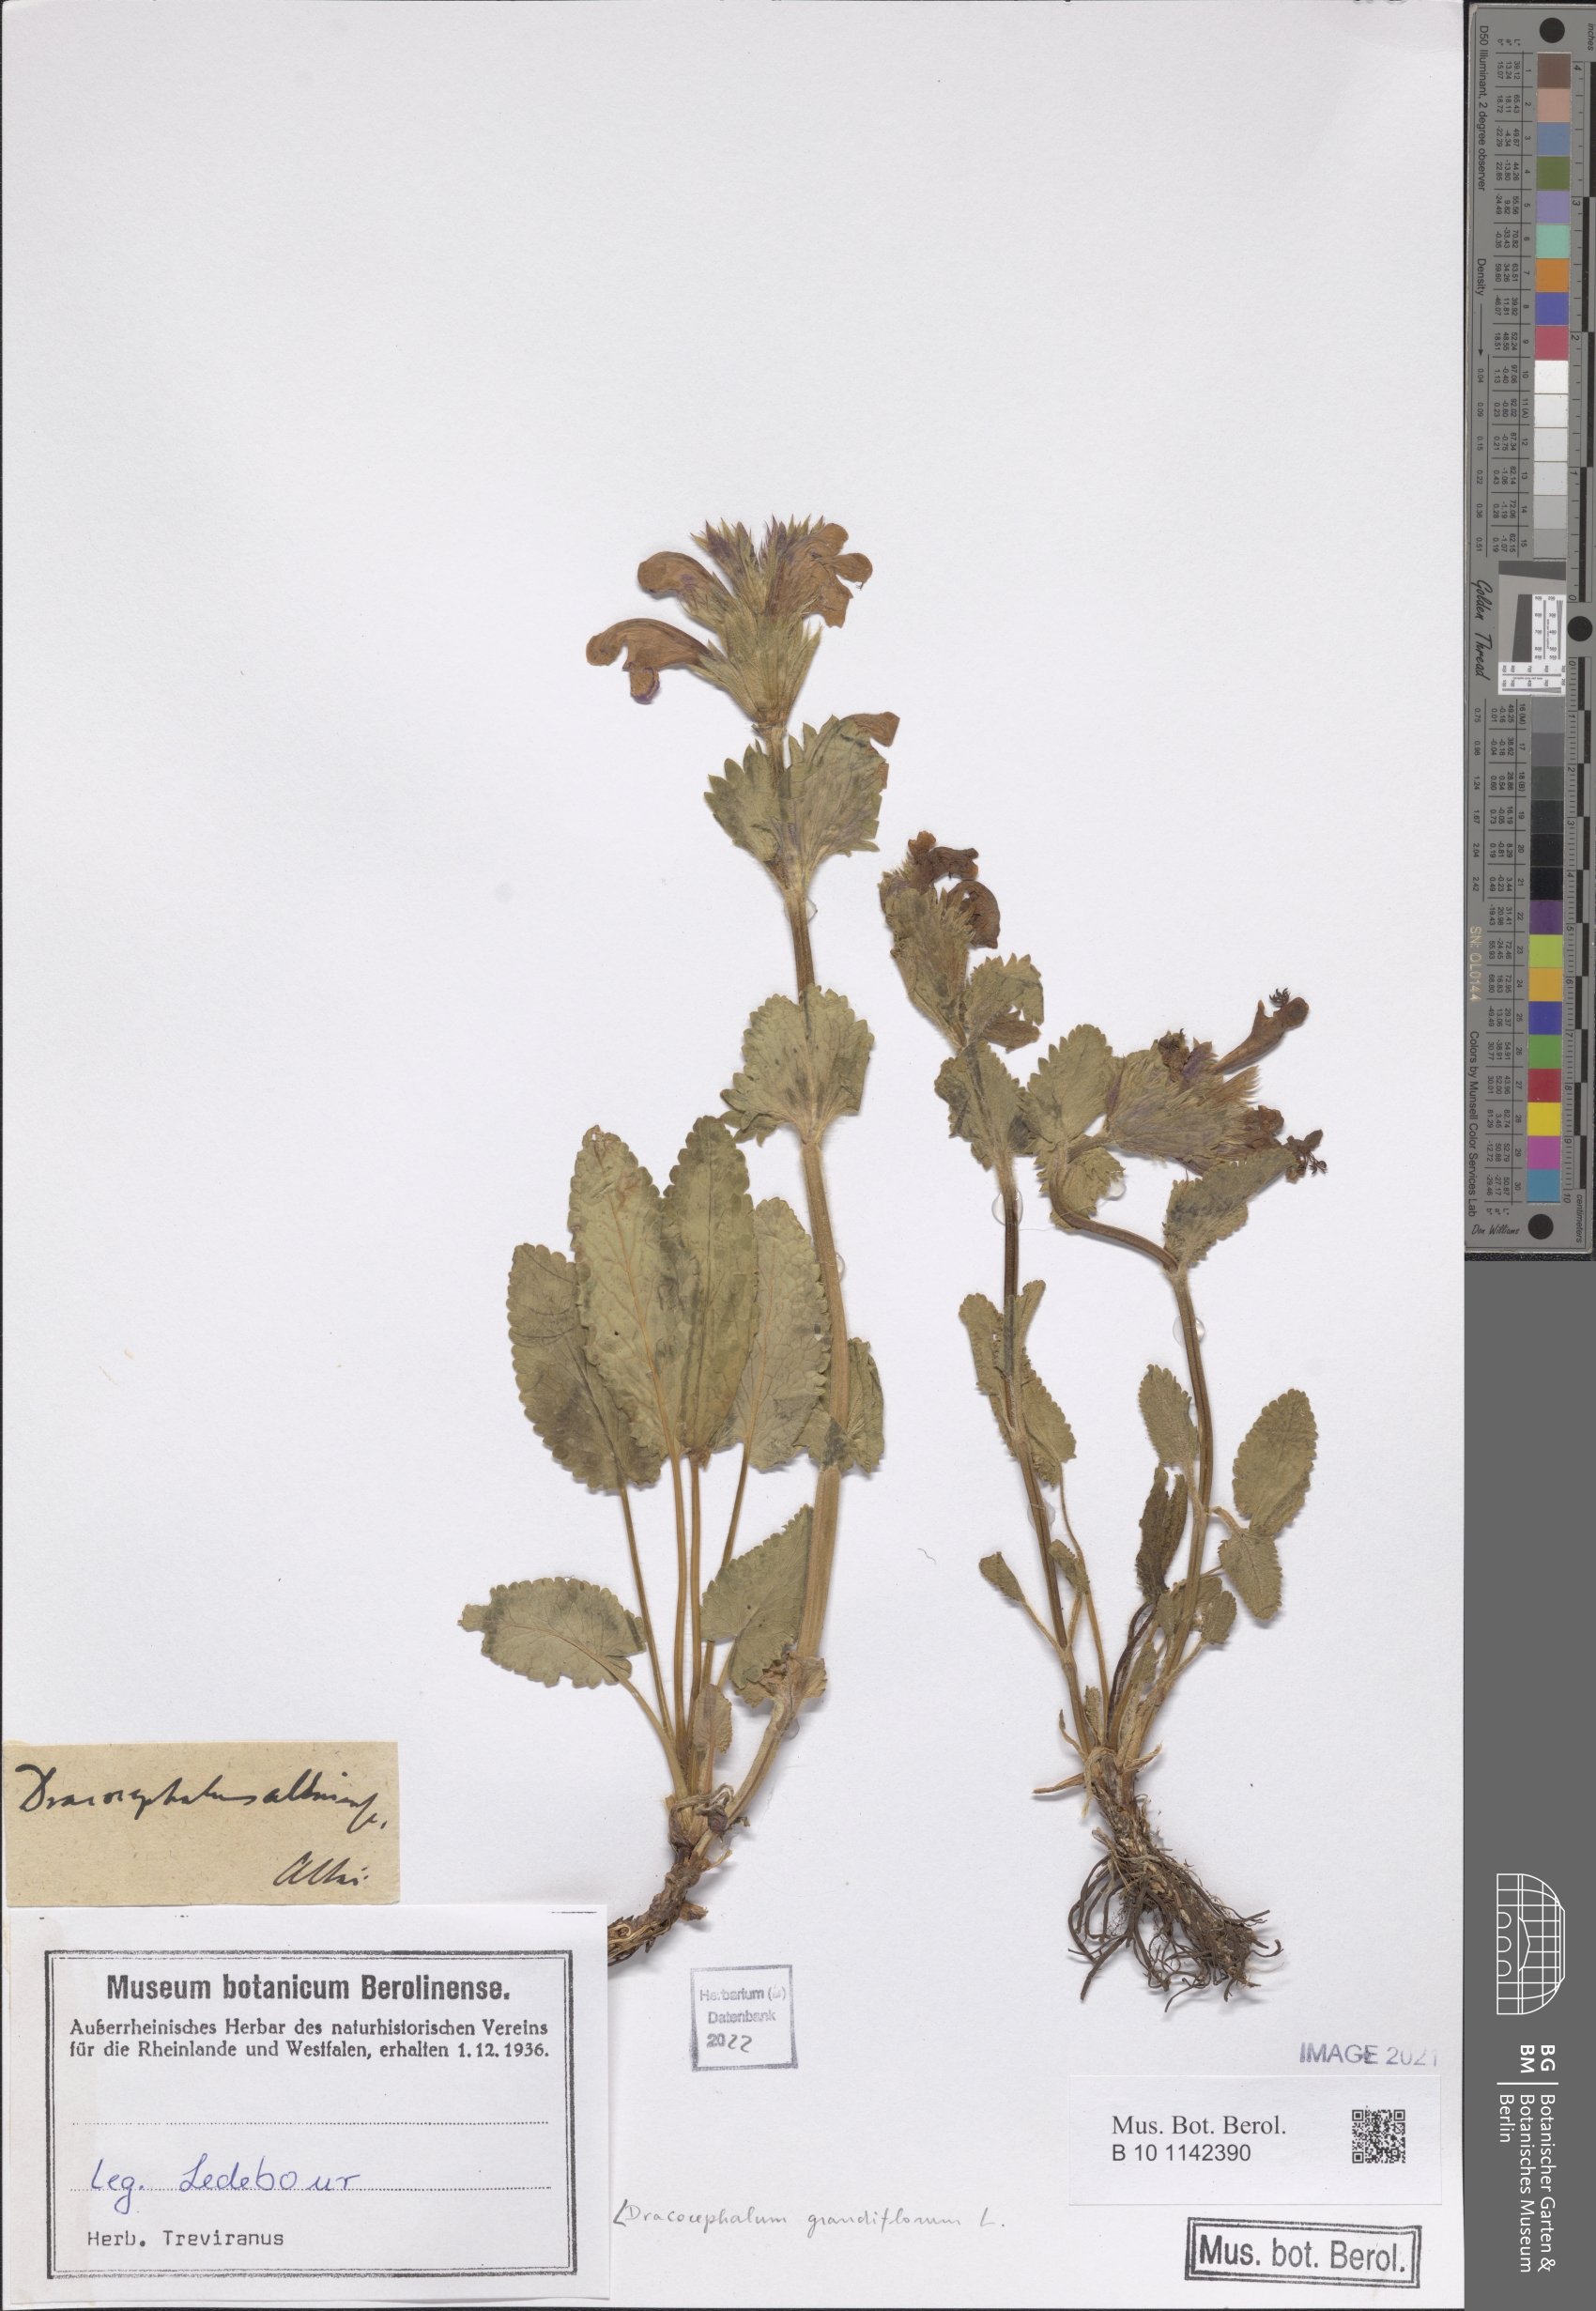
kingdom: Plantae
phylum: Tracheophyta
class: Magnoliopsida
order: Lamiales
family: Lamiaceae
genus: Dracocephalum
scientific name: Dracocephalum grandiflorum
